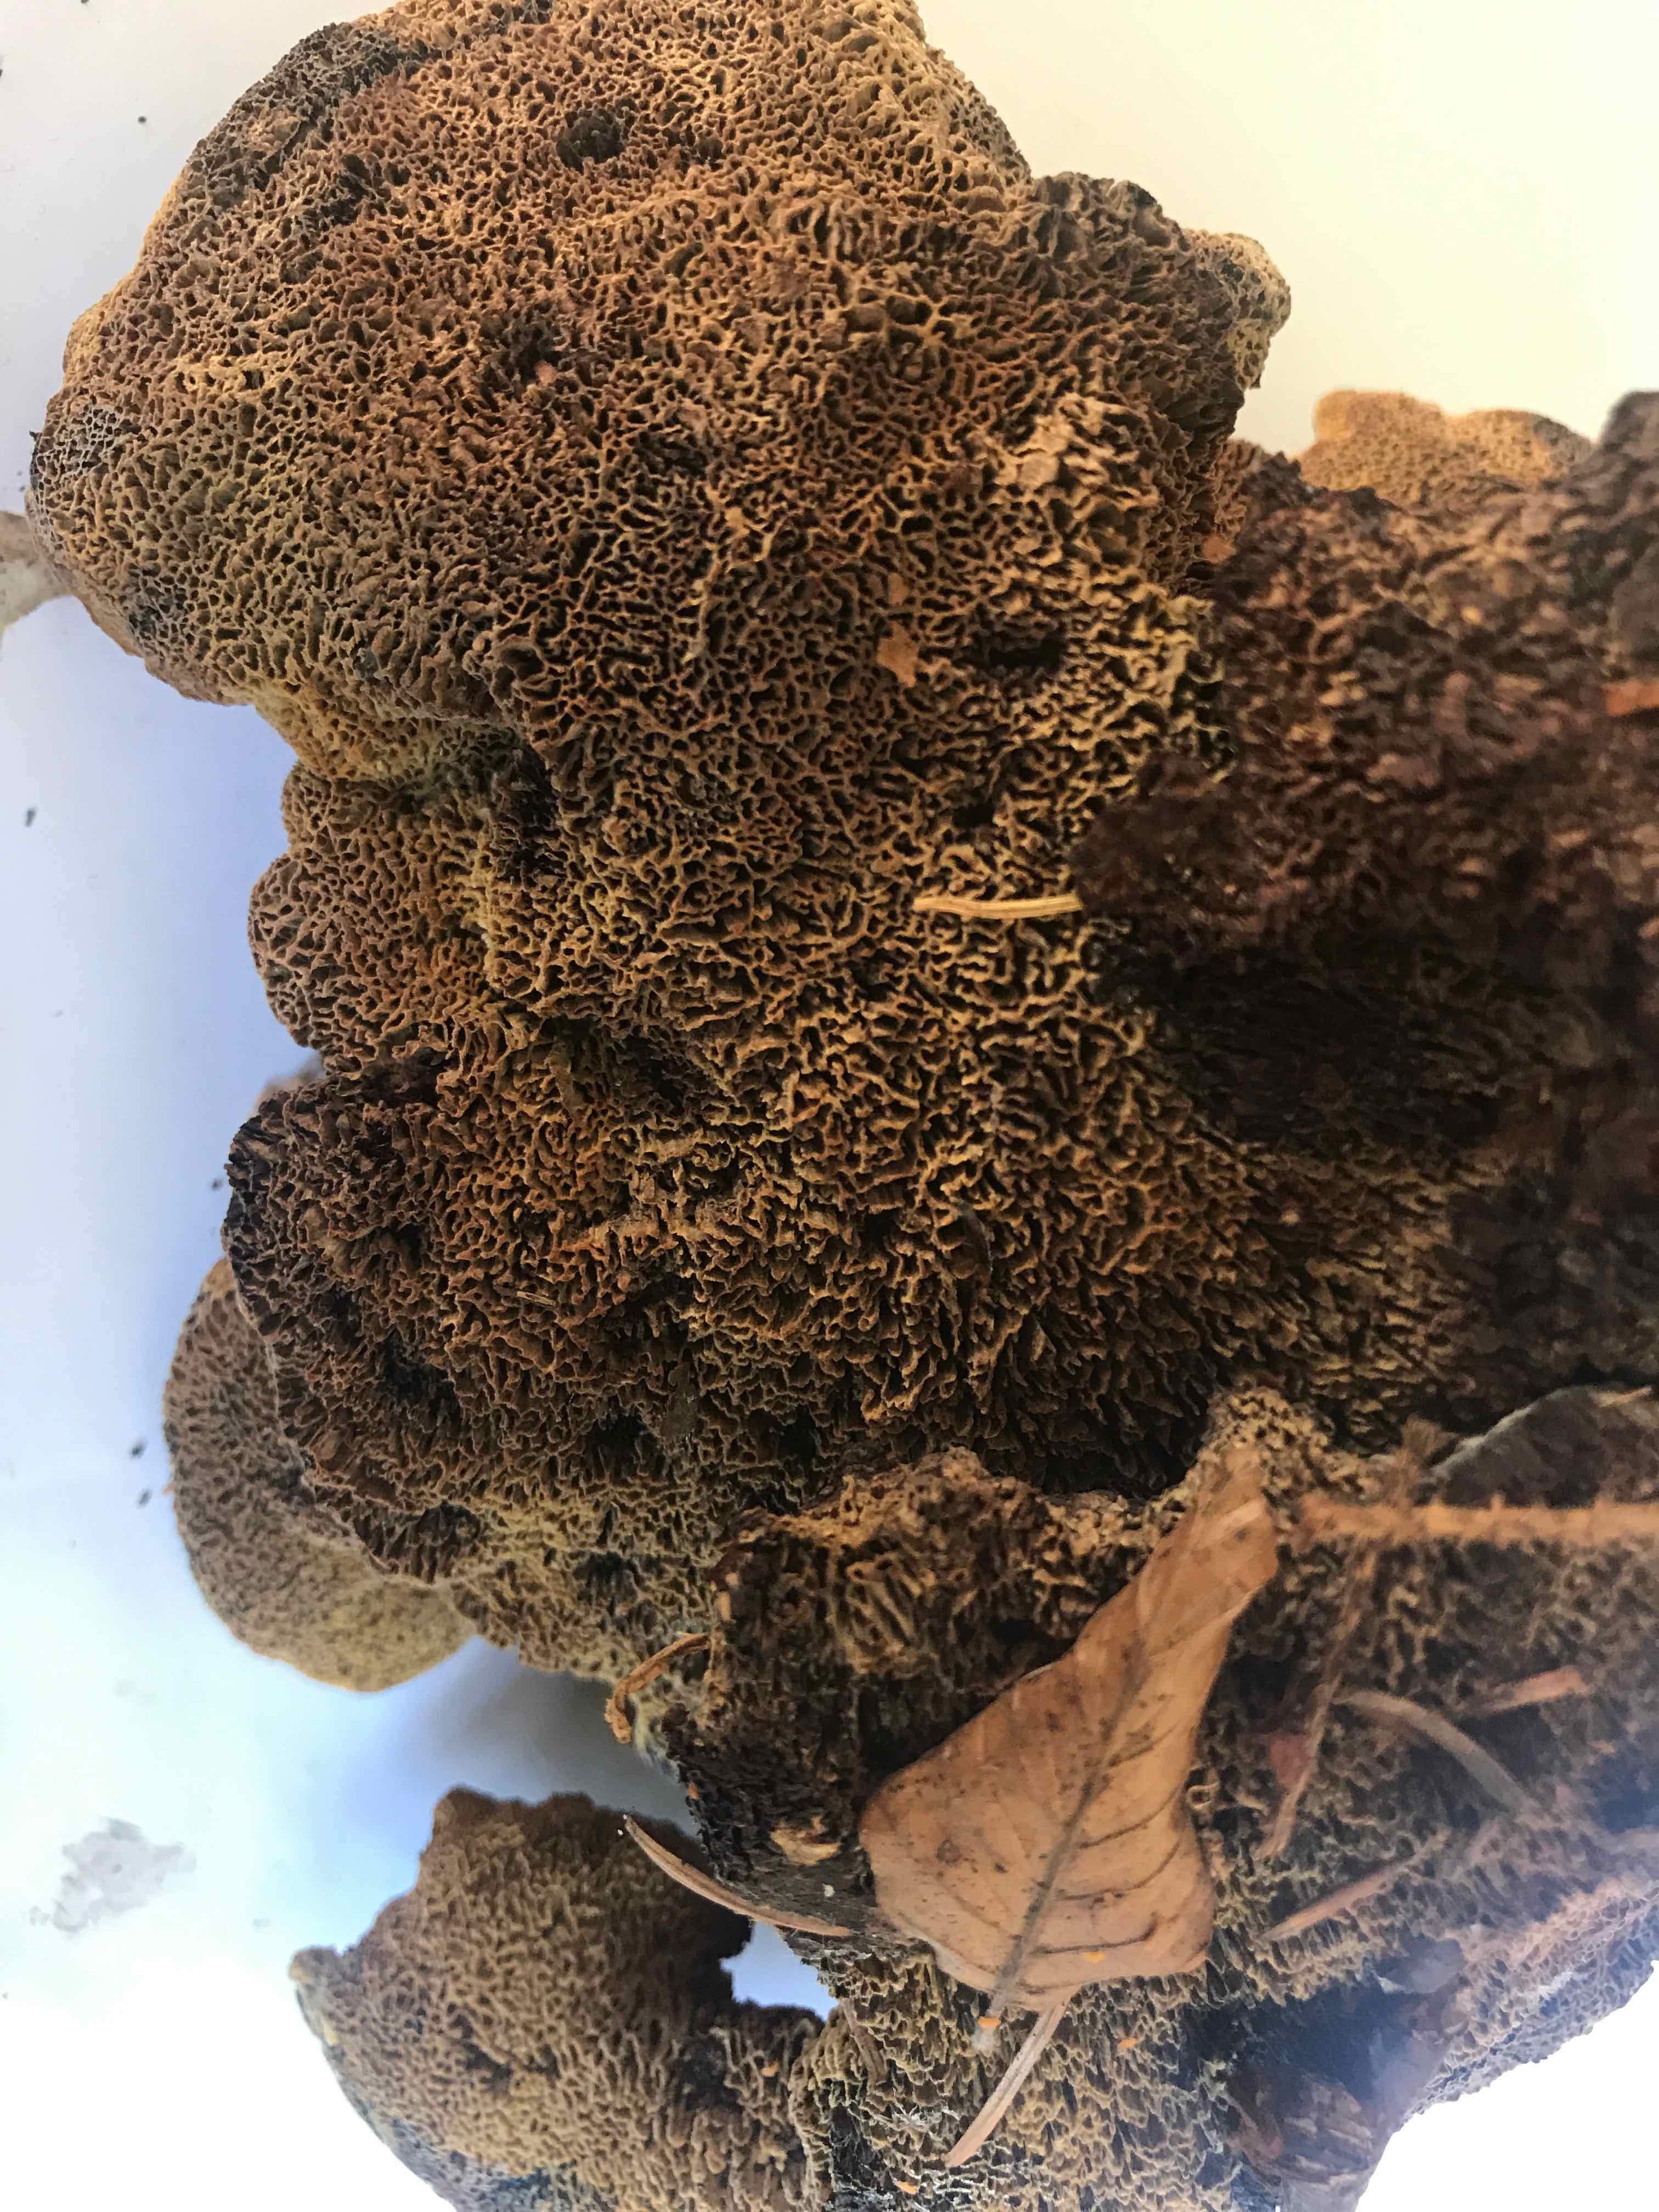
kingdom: Fungi
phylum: Basidiomycota
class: Agaricomycetes
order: Polyporales
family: Laetiporaceae
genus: Phaeolus
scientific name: Phaeolus schweinitzii
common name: brunporesvamp
